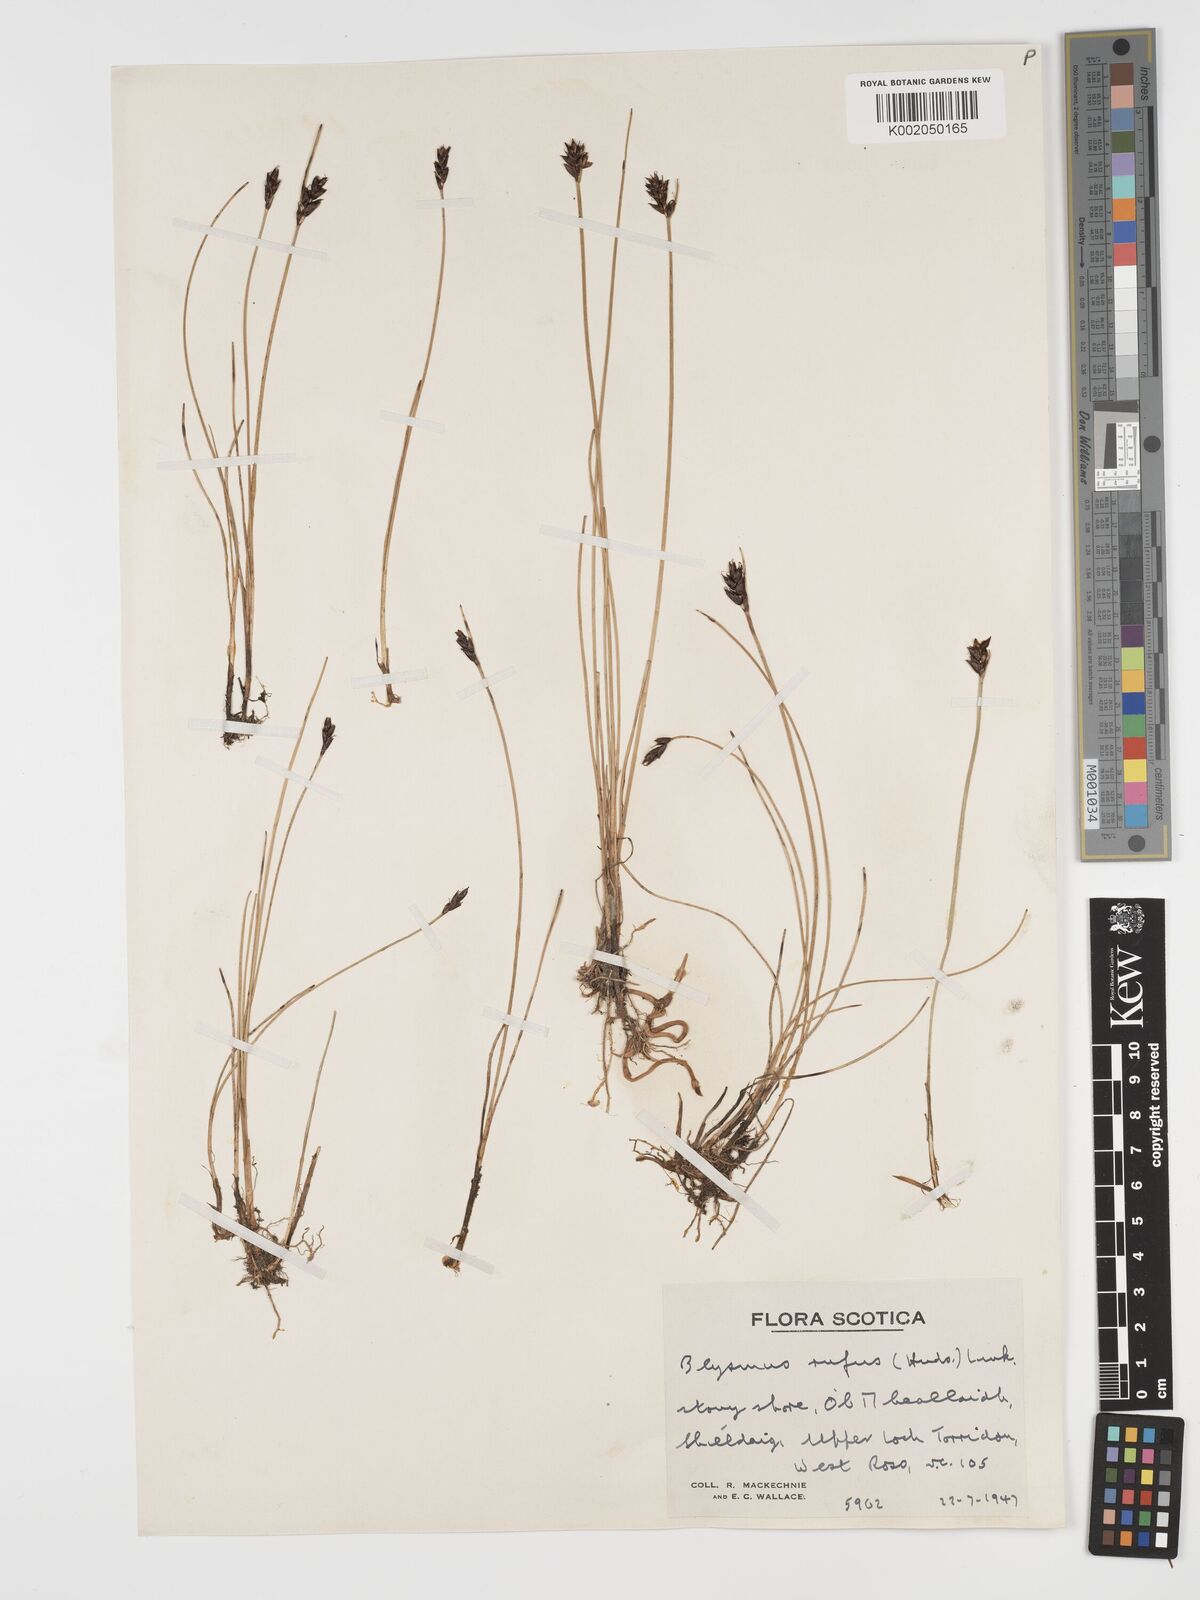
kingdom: Plantae
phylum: Tracheophyta
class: Liliopsida
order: Poales
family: Cyperaceae
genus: Blysmus
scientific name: Blysmus rufus
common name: Saltmarsh flat-sedge
